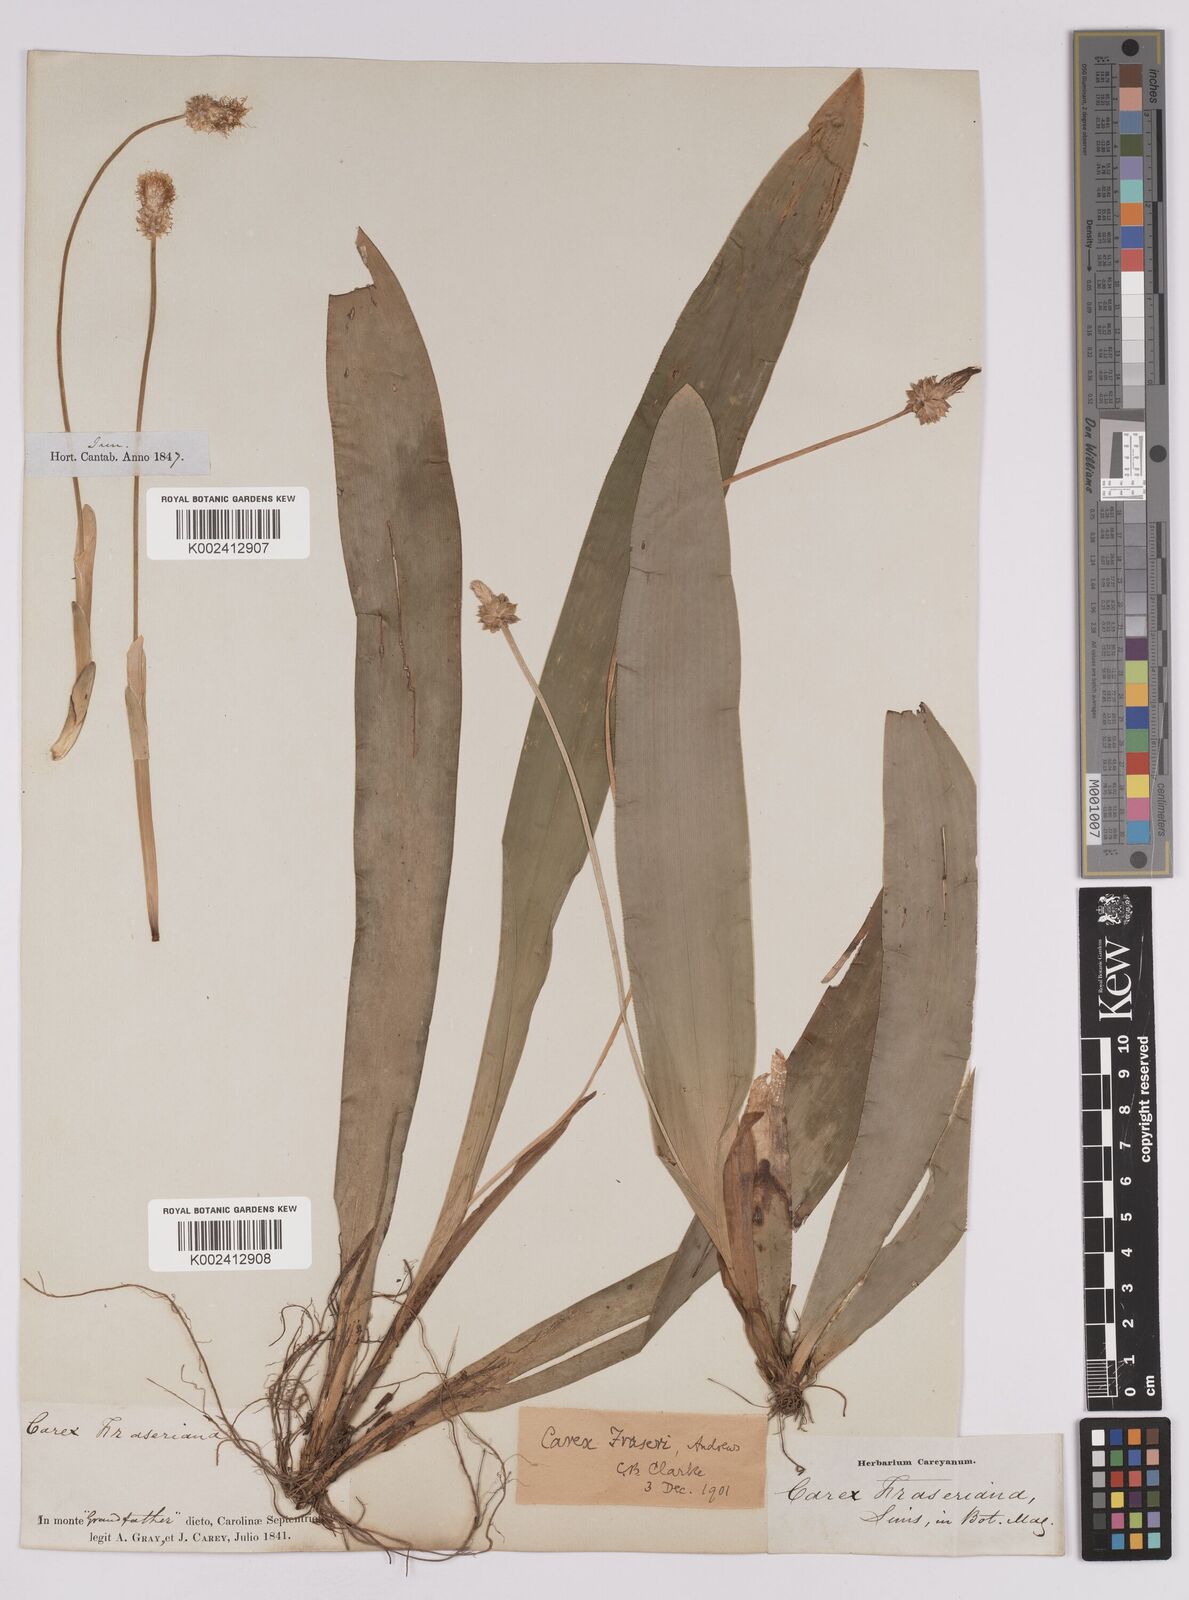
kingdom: Plantae
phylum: Tracheophyta
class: Liliopsida
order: Poales
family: Cyperaceae
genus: Carex
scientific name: Carex fraseriana
